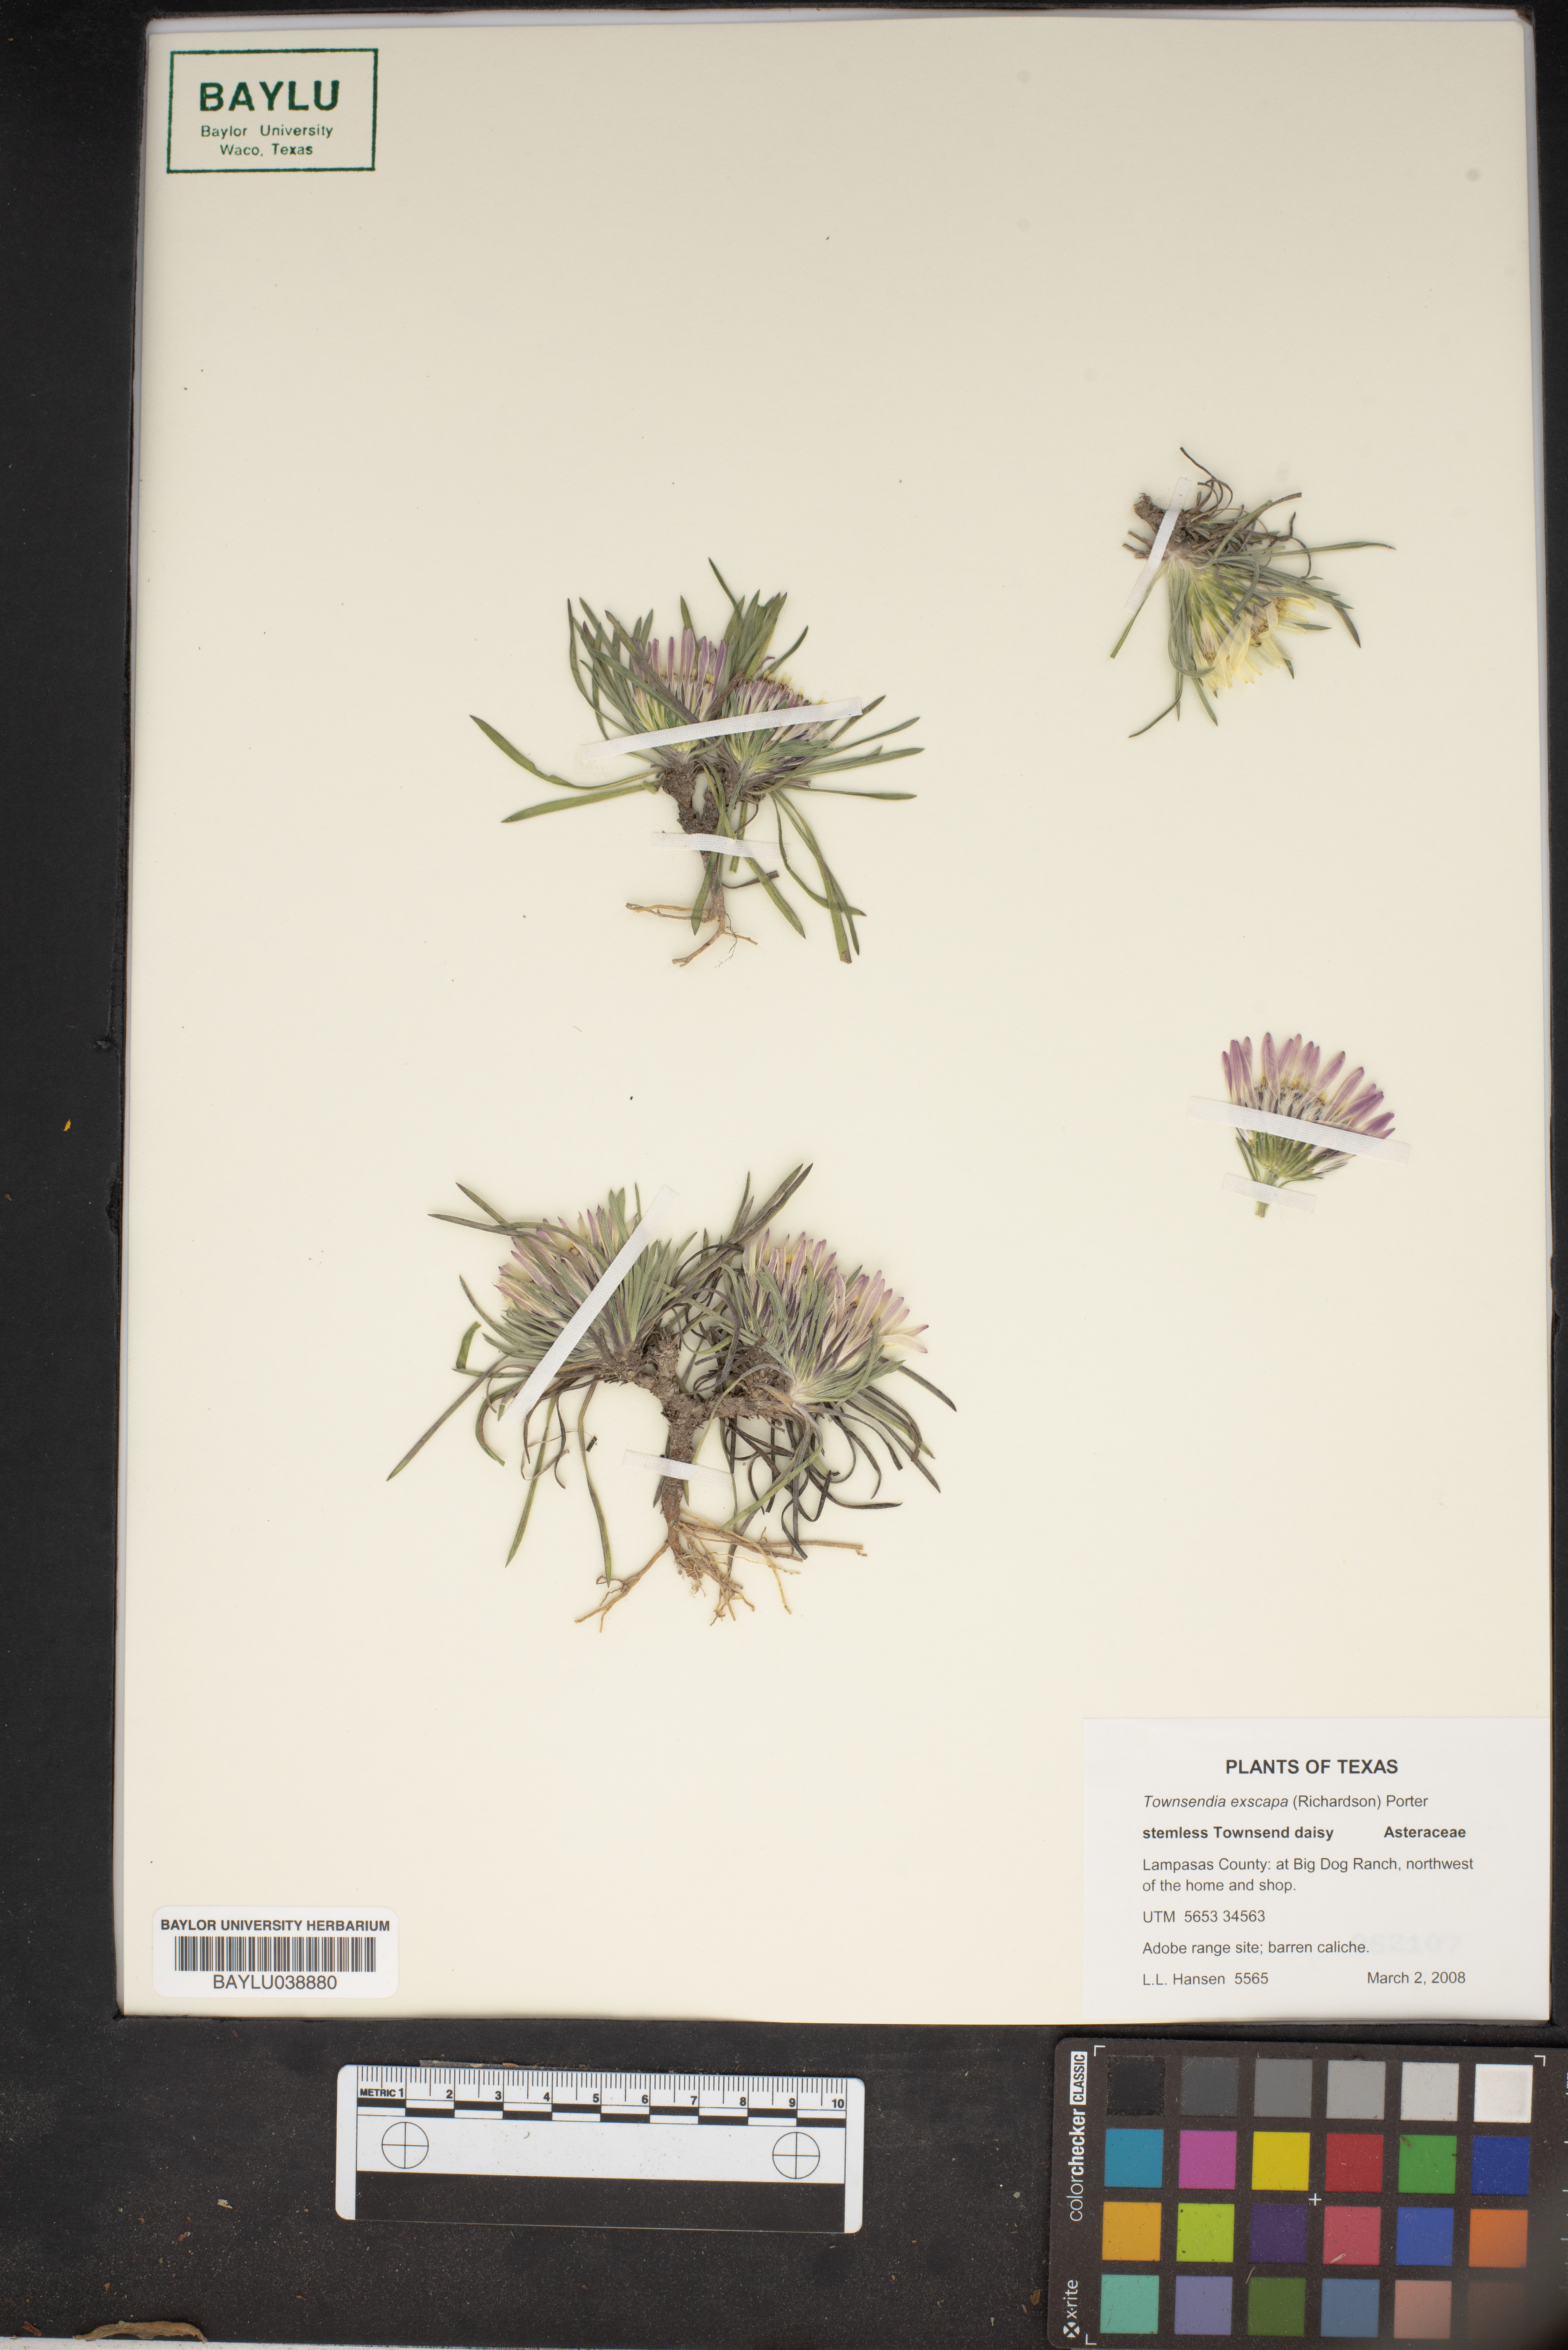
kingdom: Plantae
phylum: Tracheophyta
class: Magnoliopsida
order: Asterales
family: Asteraceae
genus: Townsendia
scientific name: Townsendia exscapa
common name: Dwarf townsendia
